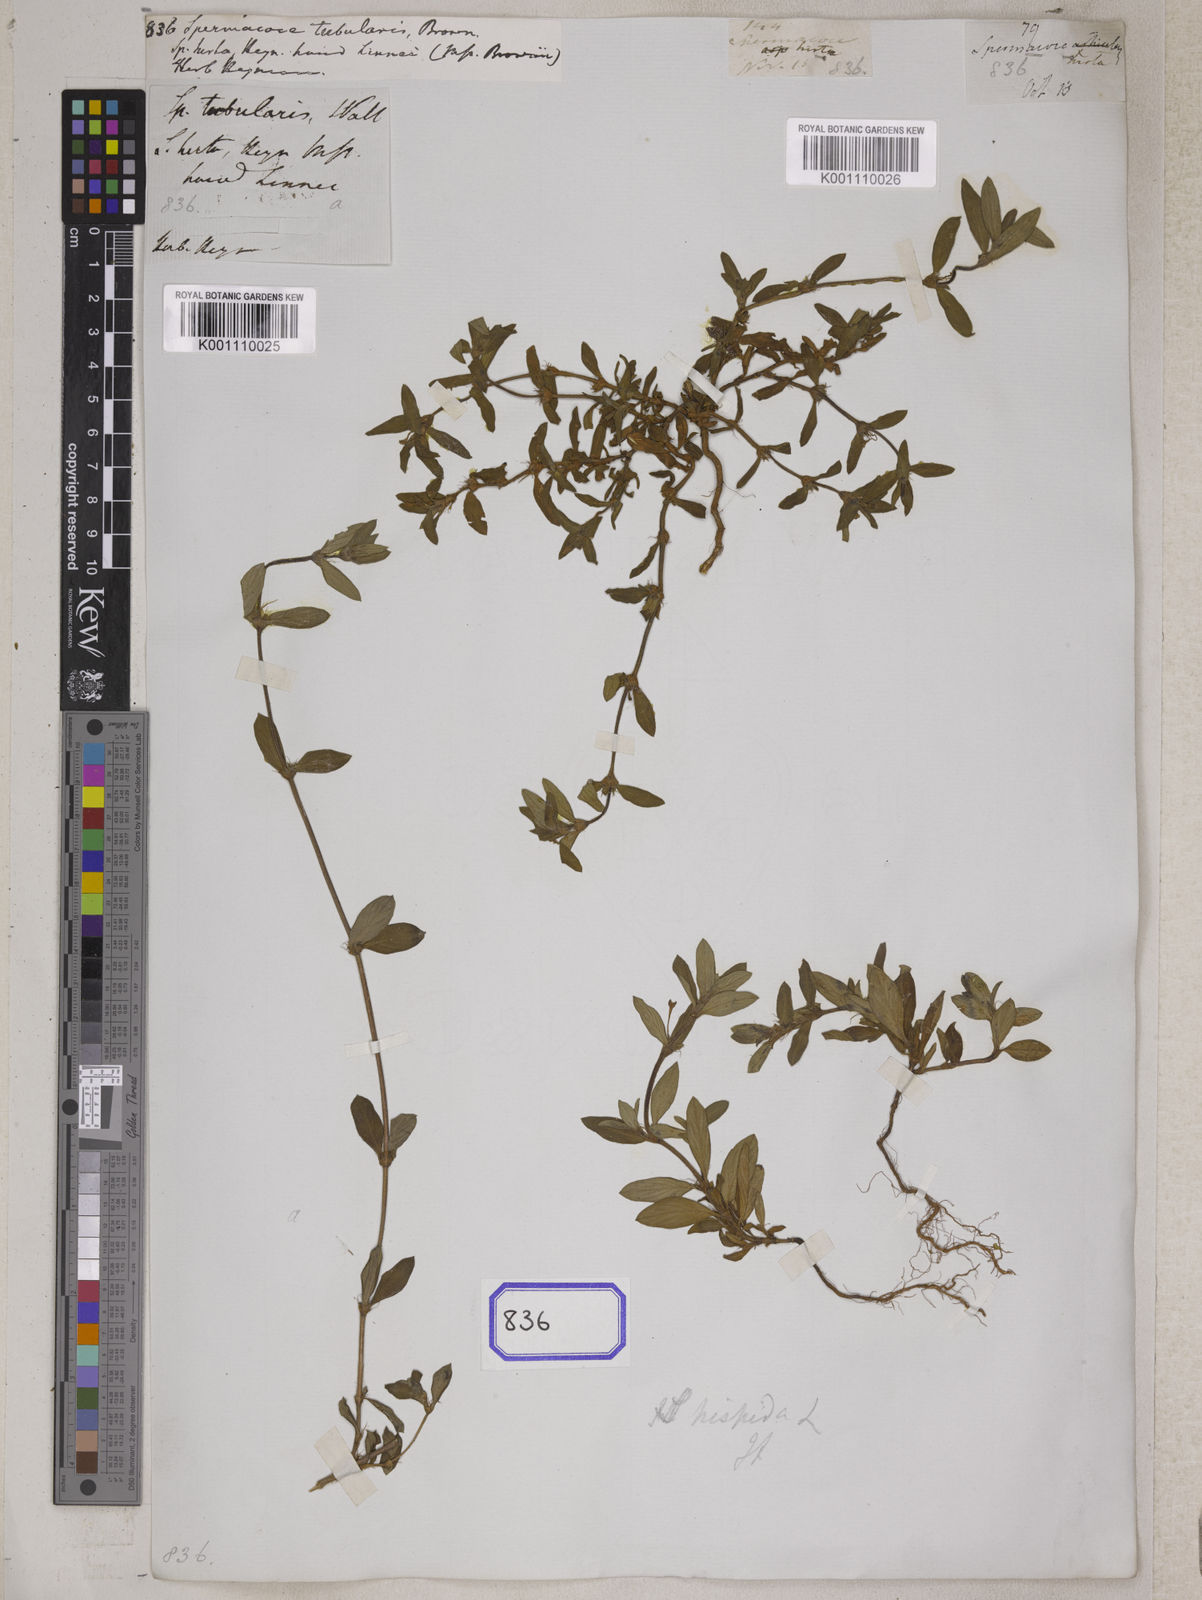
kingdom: Plantae
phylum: Tracheophyta
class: Magnoliopsida
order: Gentianales
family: Rubiaceae
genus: Spermacoce
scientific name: Spermacoce
